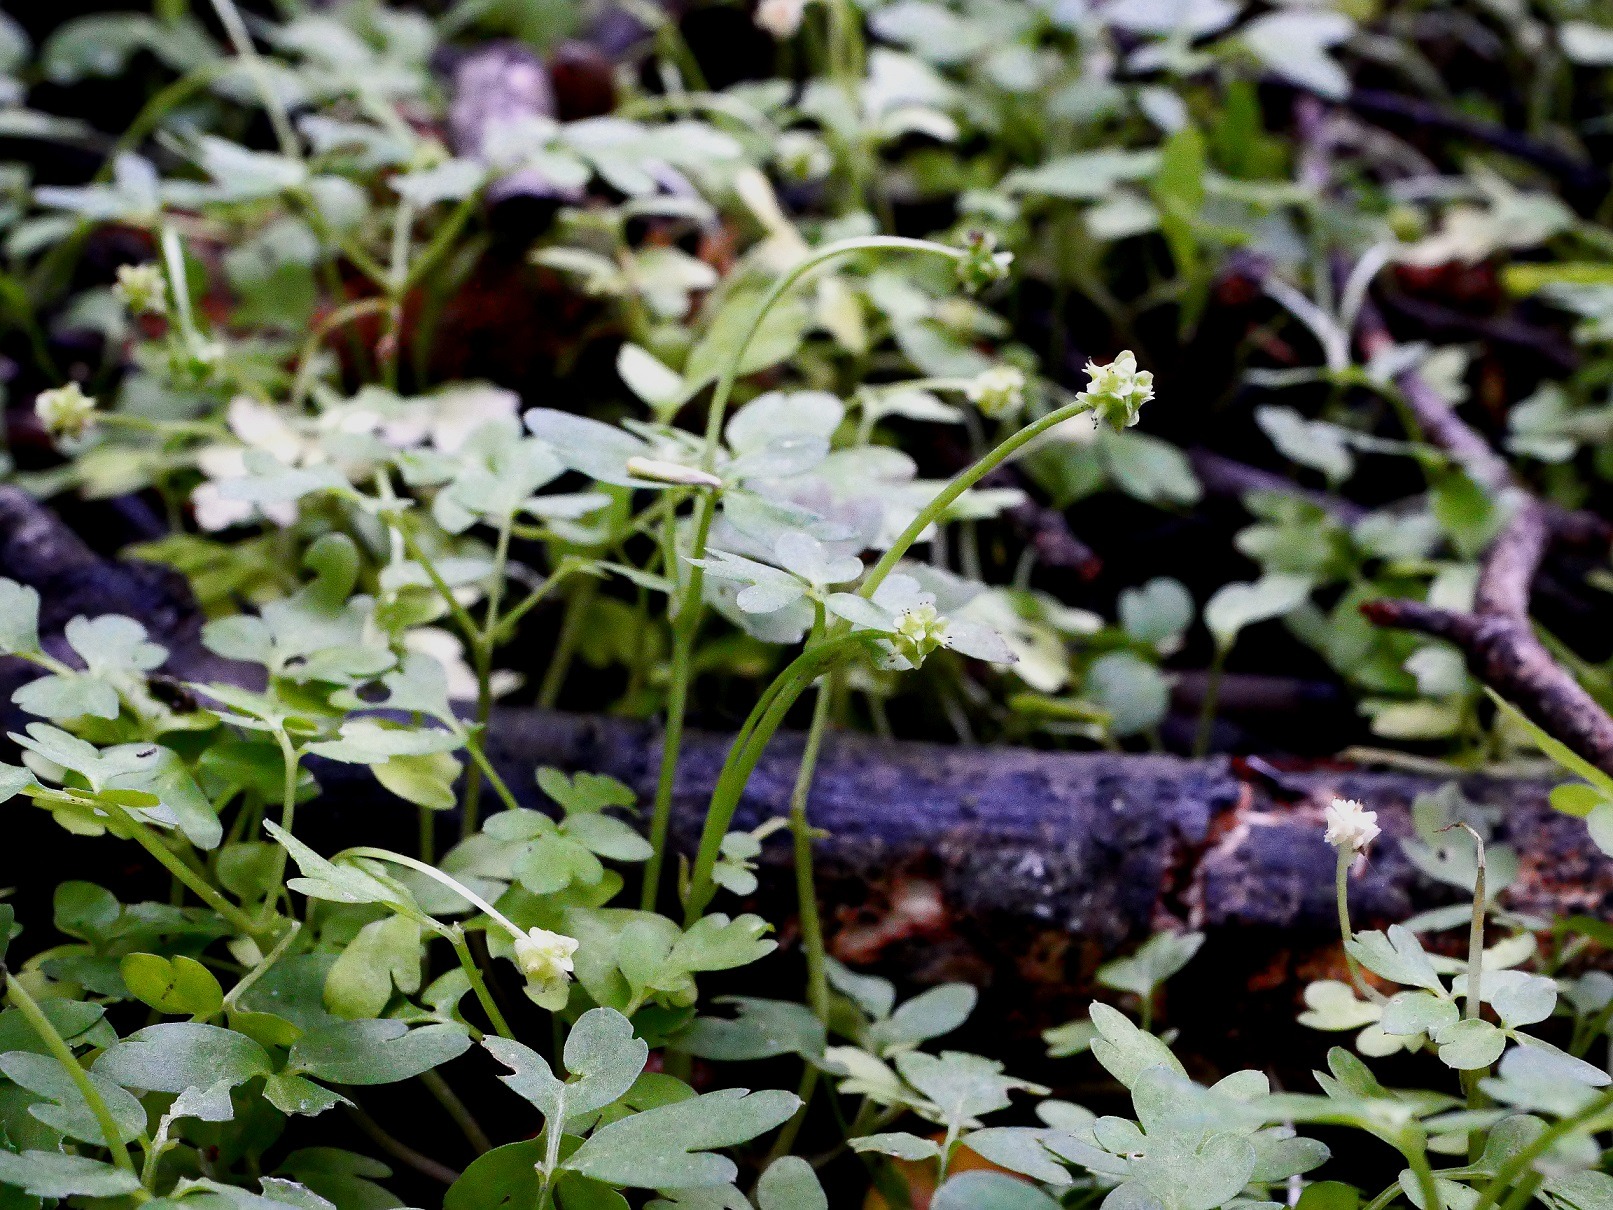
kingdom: Plantae
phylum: Tracheophyta
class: Magnoliopsida
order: Dipsacales
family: Viburnaceae
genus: Adoxa
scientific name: Adoxa moschatellina
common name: Desmerurt
